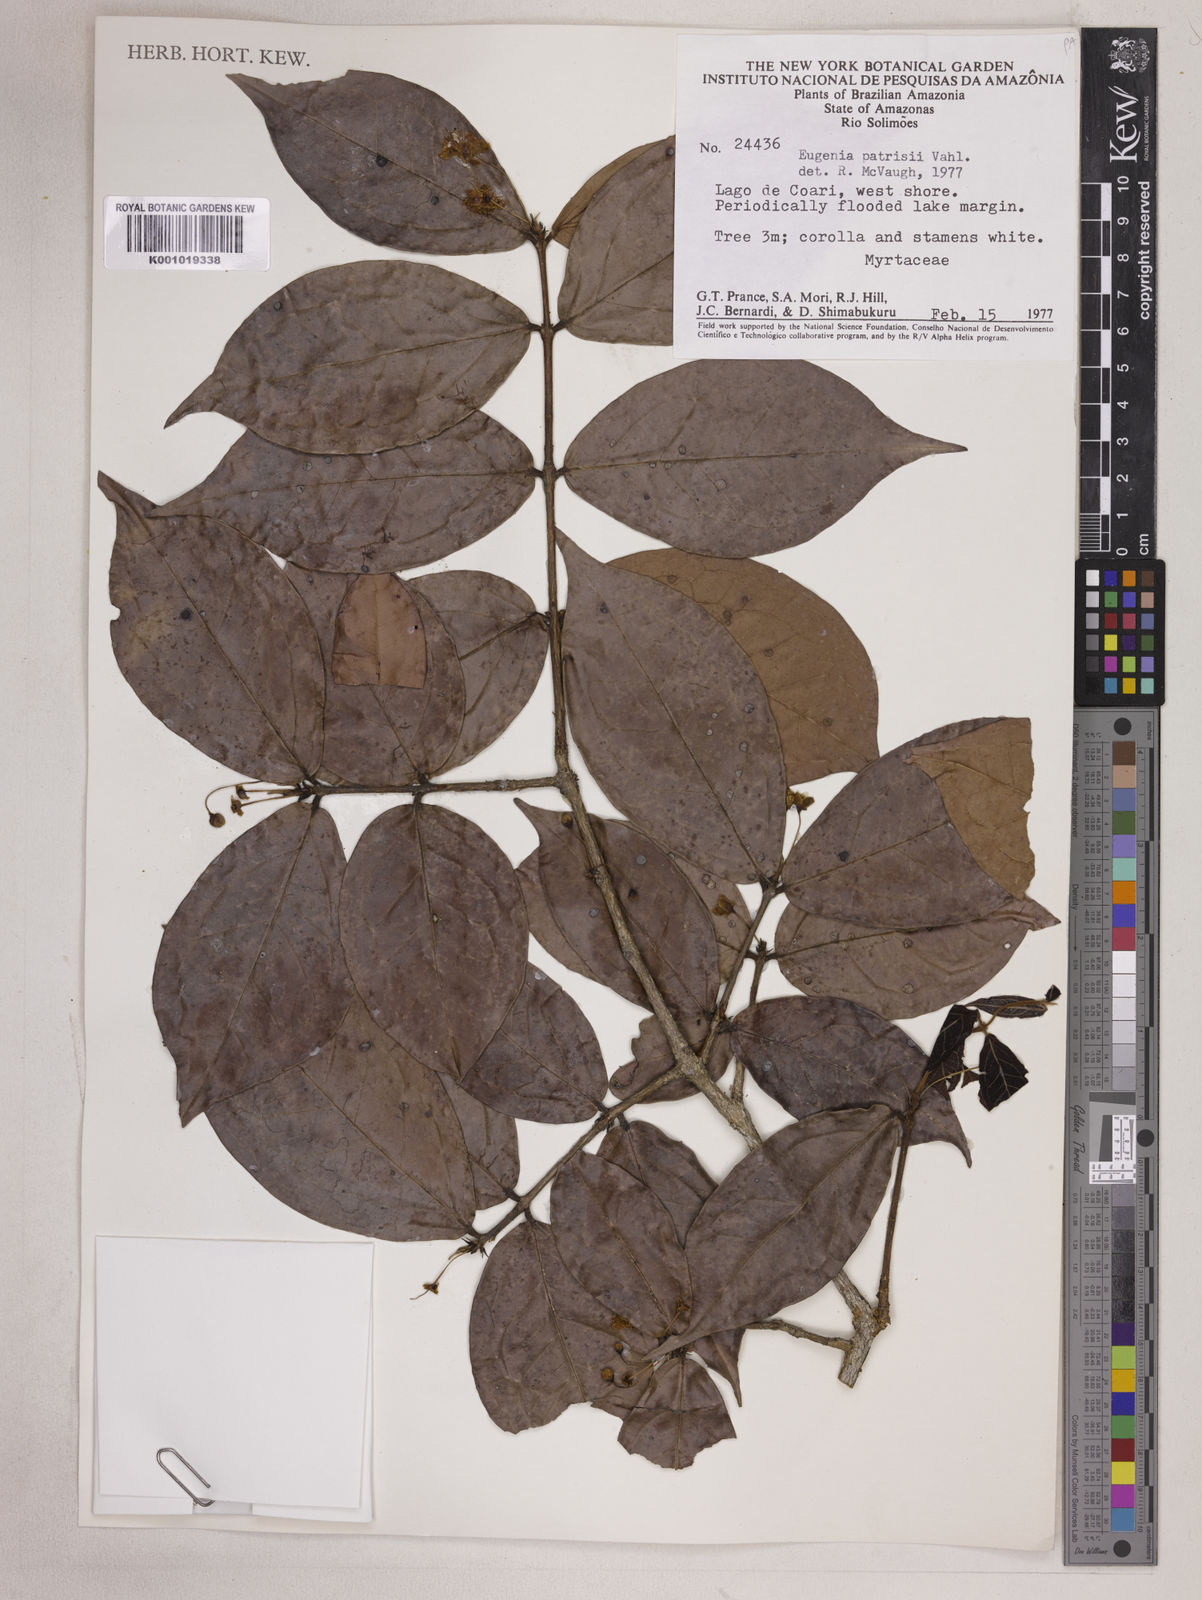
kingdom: Plantae
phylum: Tracheophyta
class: Magnoliopsida
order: Myrtales
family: Myrtaceae
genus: Eugenia
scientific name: Eugenia patrisii
